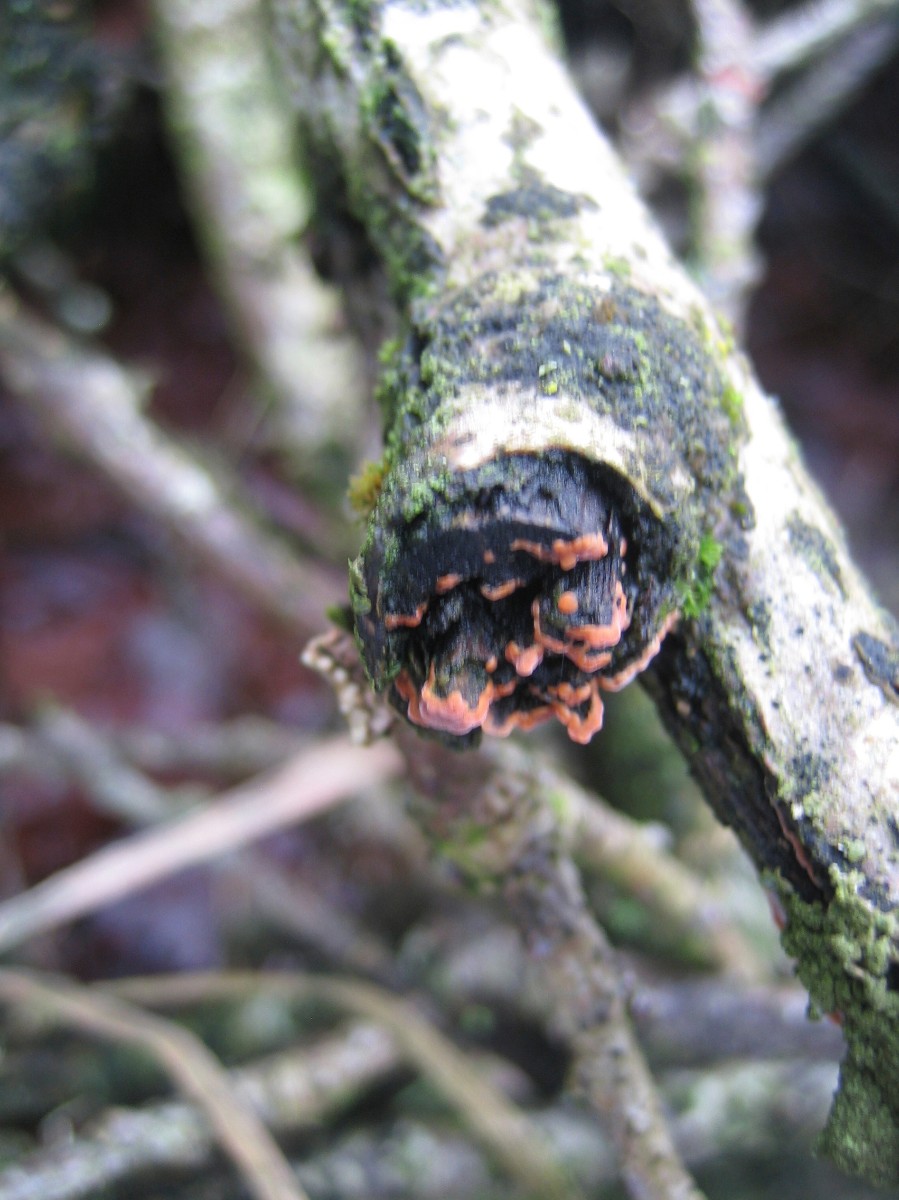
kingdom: Fungi
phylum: Basidiomycota
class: Agaricomycetes
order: Russulales
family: Peniophoraceae
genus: Peniophora
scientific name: Peniophora incarnata
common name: laksefarvet voksskind
